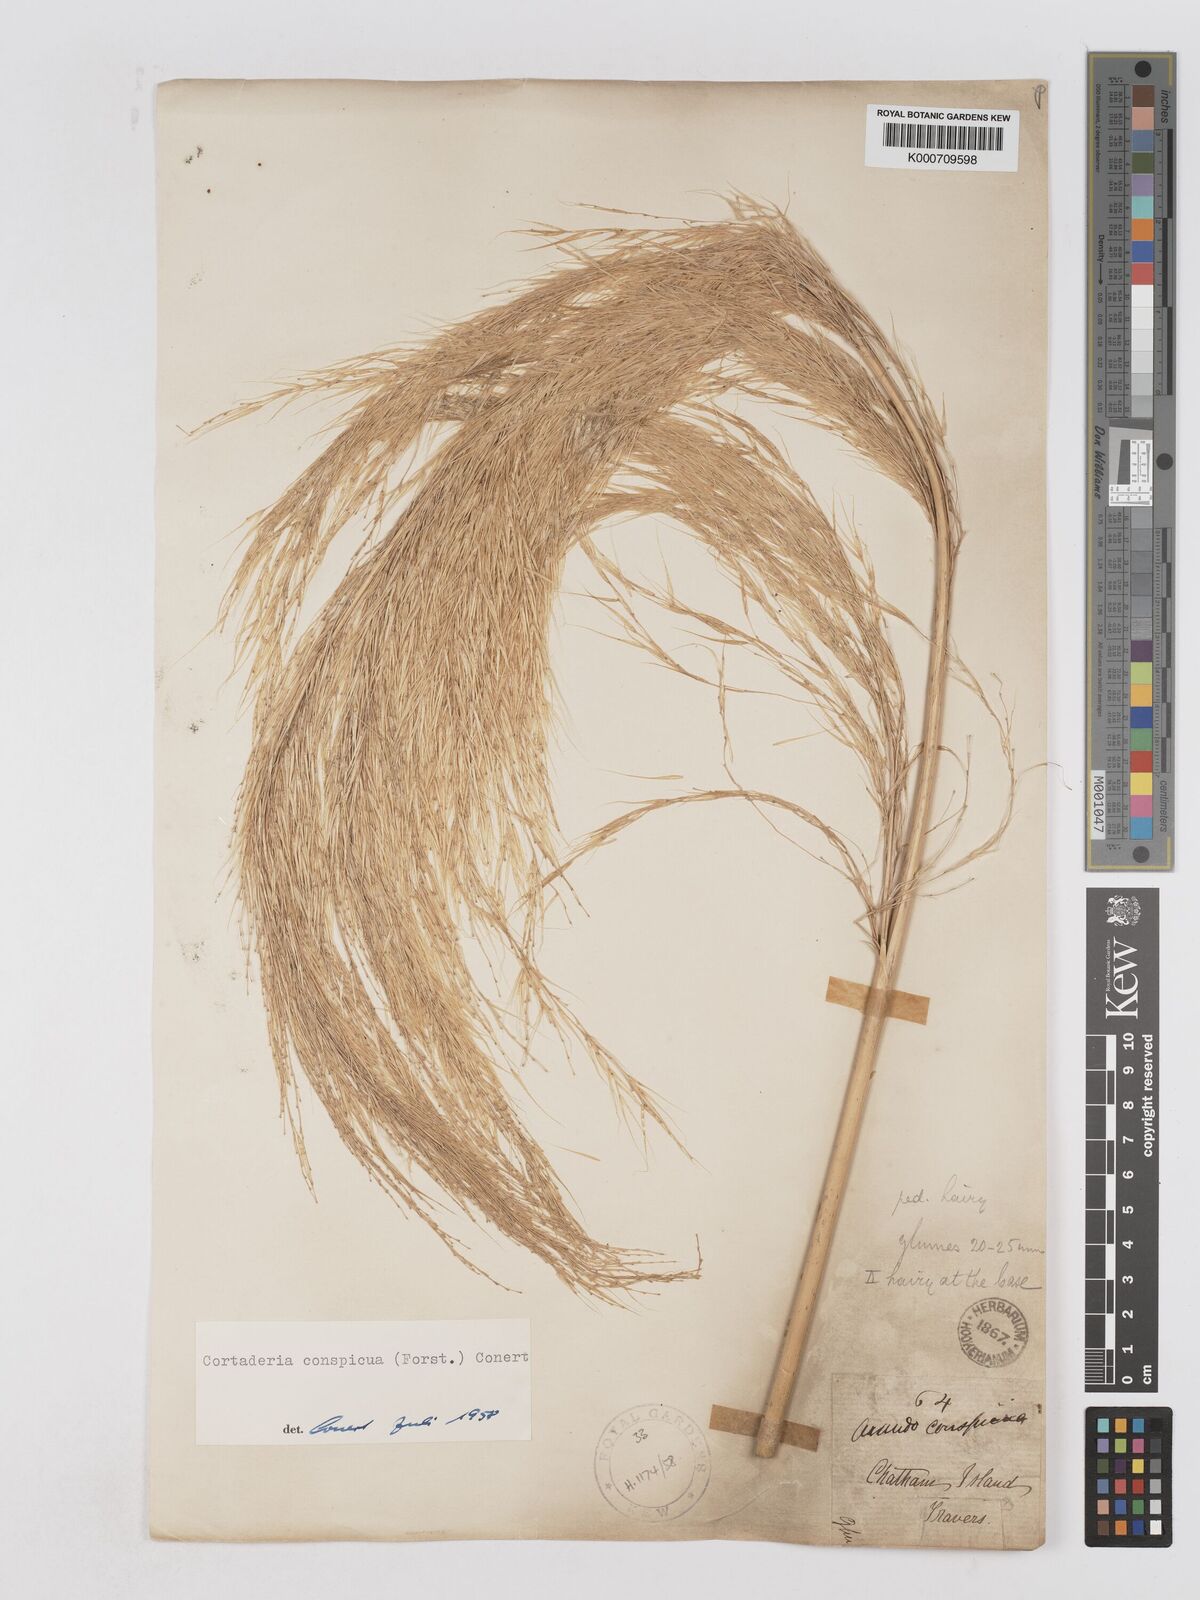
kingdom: Plantae
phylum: Tracheophyta
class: Liliopsida
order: Poales
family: Poaceae
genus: Austroderia
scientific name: Austroderia richardii
